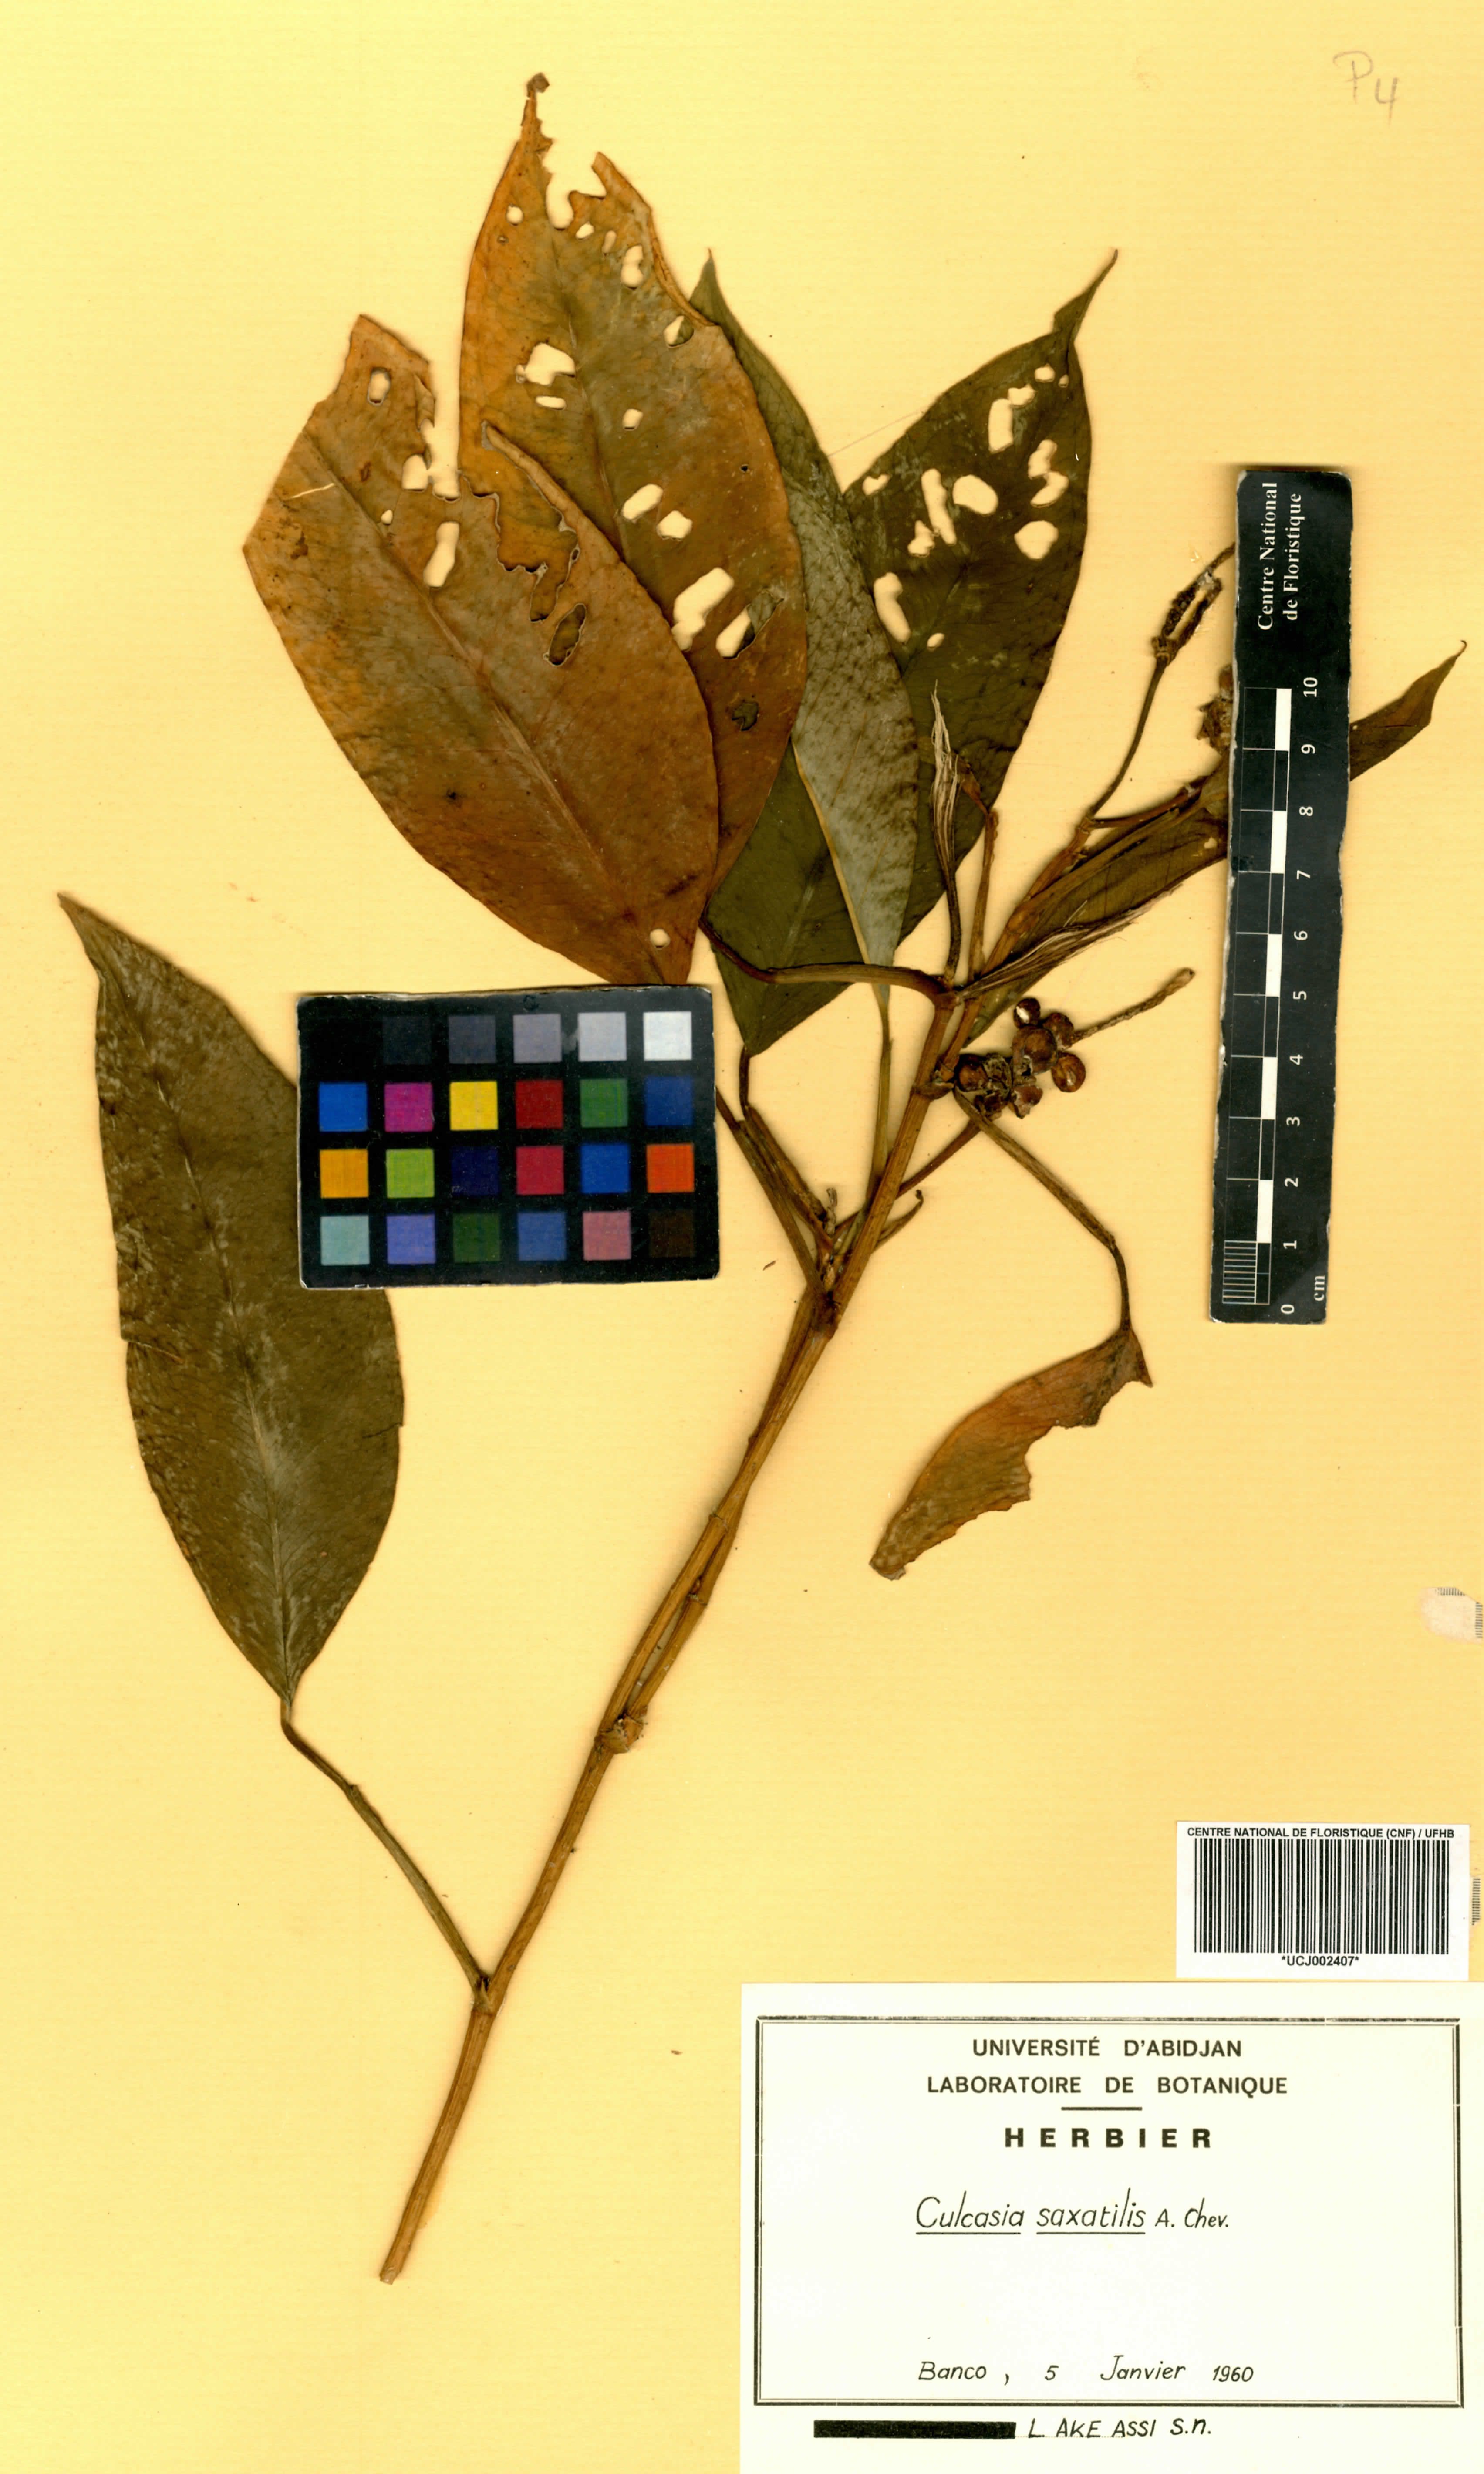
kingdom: Plantae
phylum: Tracheophyta
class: Liliopsida
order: Alismatales
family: Araceae
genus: Culcasia
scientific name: Culcasia scandens
